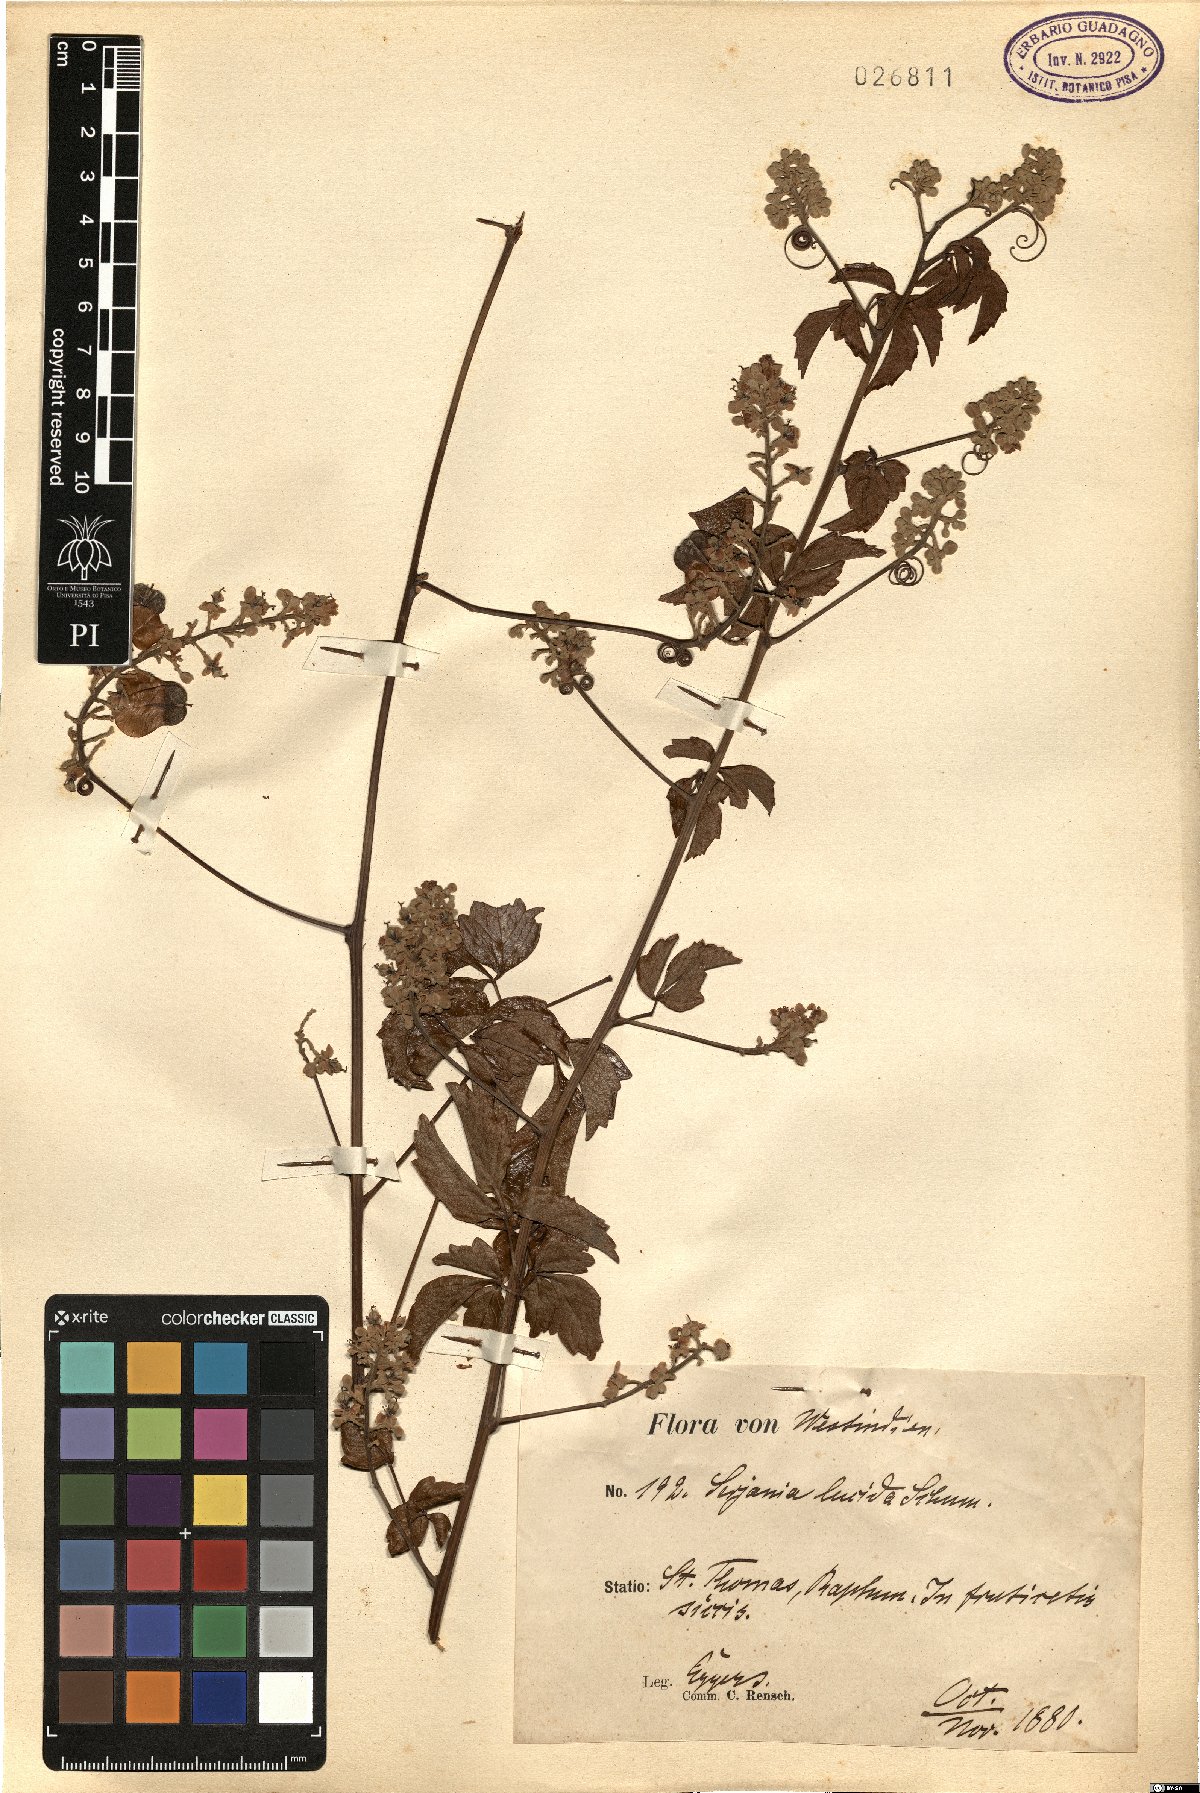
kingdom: Plantae
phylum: Tracheophyta
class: Magnoliopsida
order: Sapindales
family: Sapindaceae
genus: Serjania
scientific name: Serjania lucida
